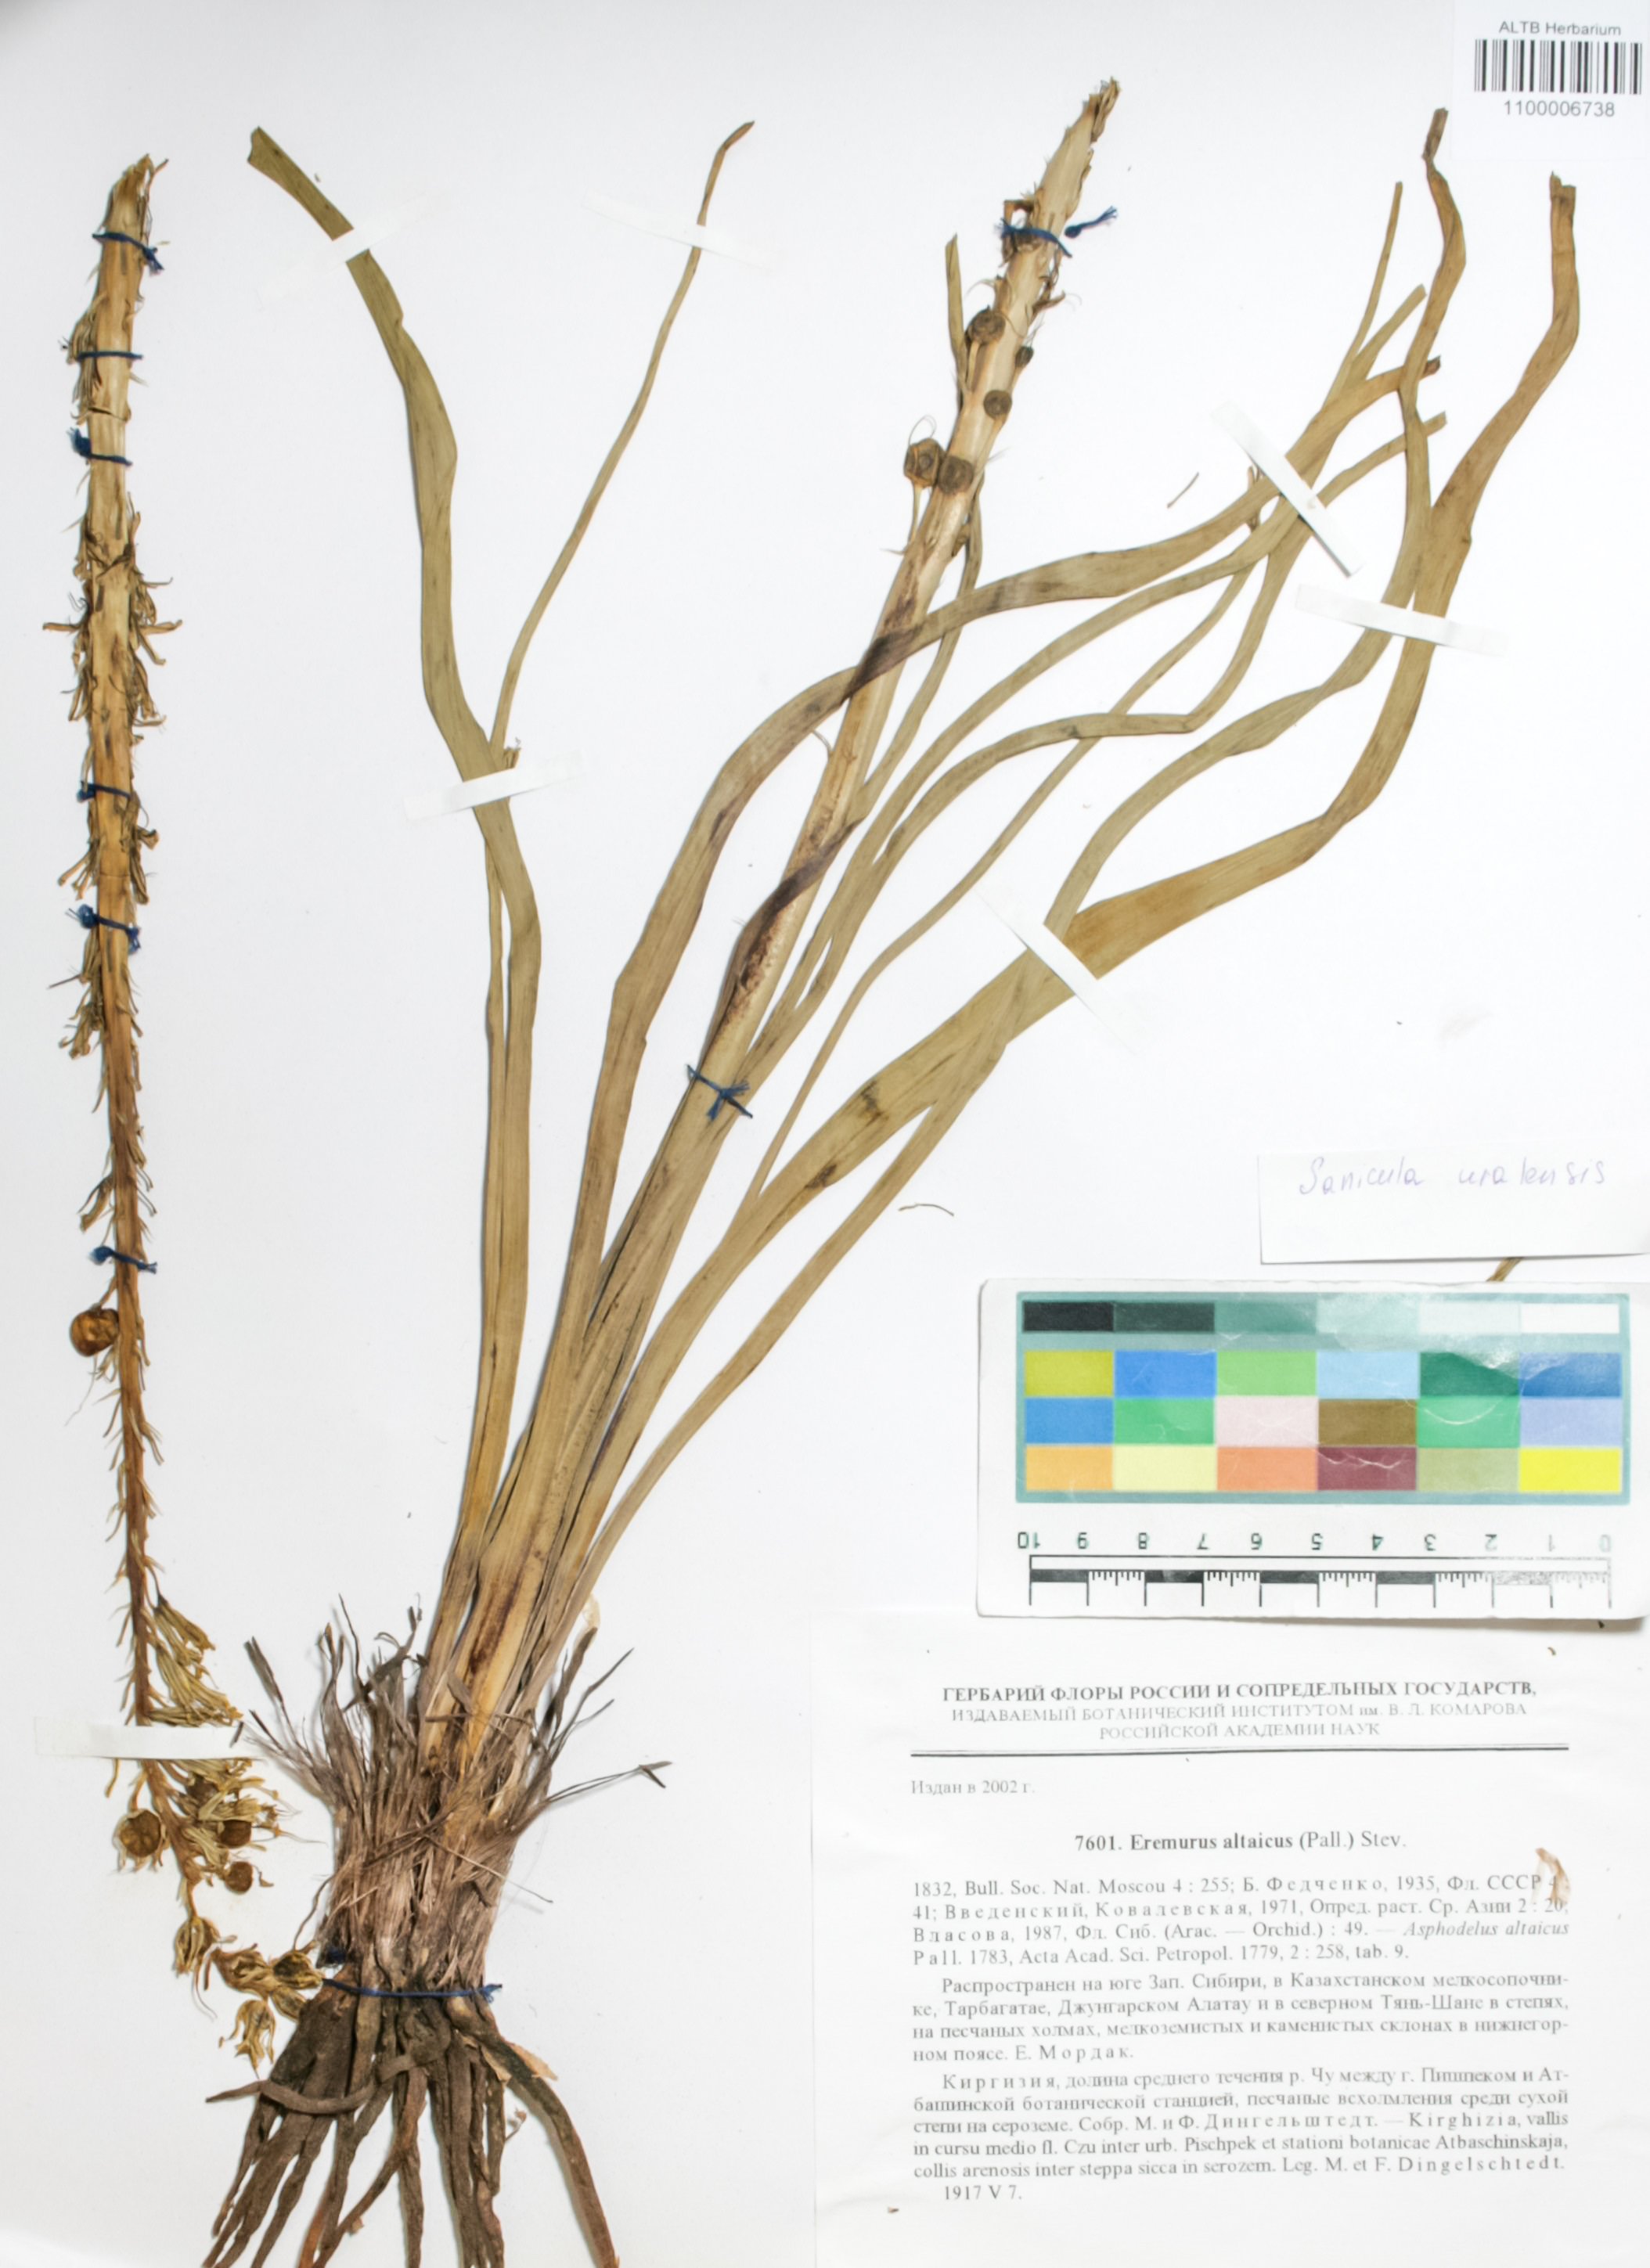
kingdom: Plantae
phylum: Tracheophyta
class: Magnoliopsida
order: Apiales
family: Apiaceae
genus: Sanicula
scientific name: Sanicula giraldii
